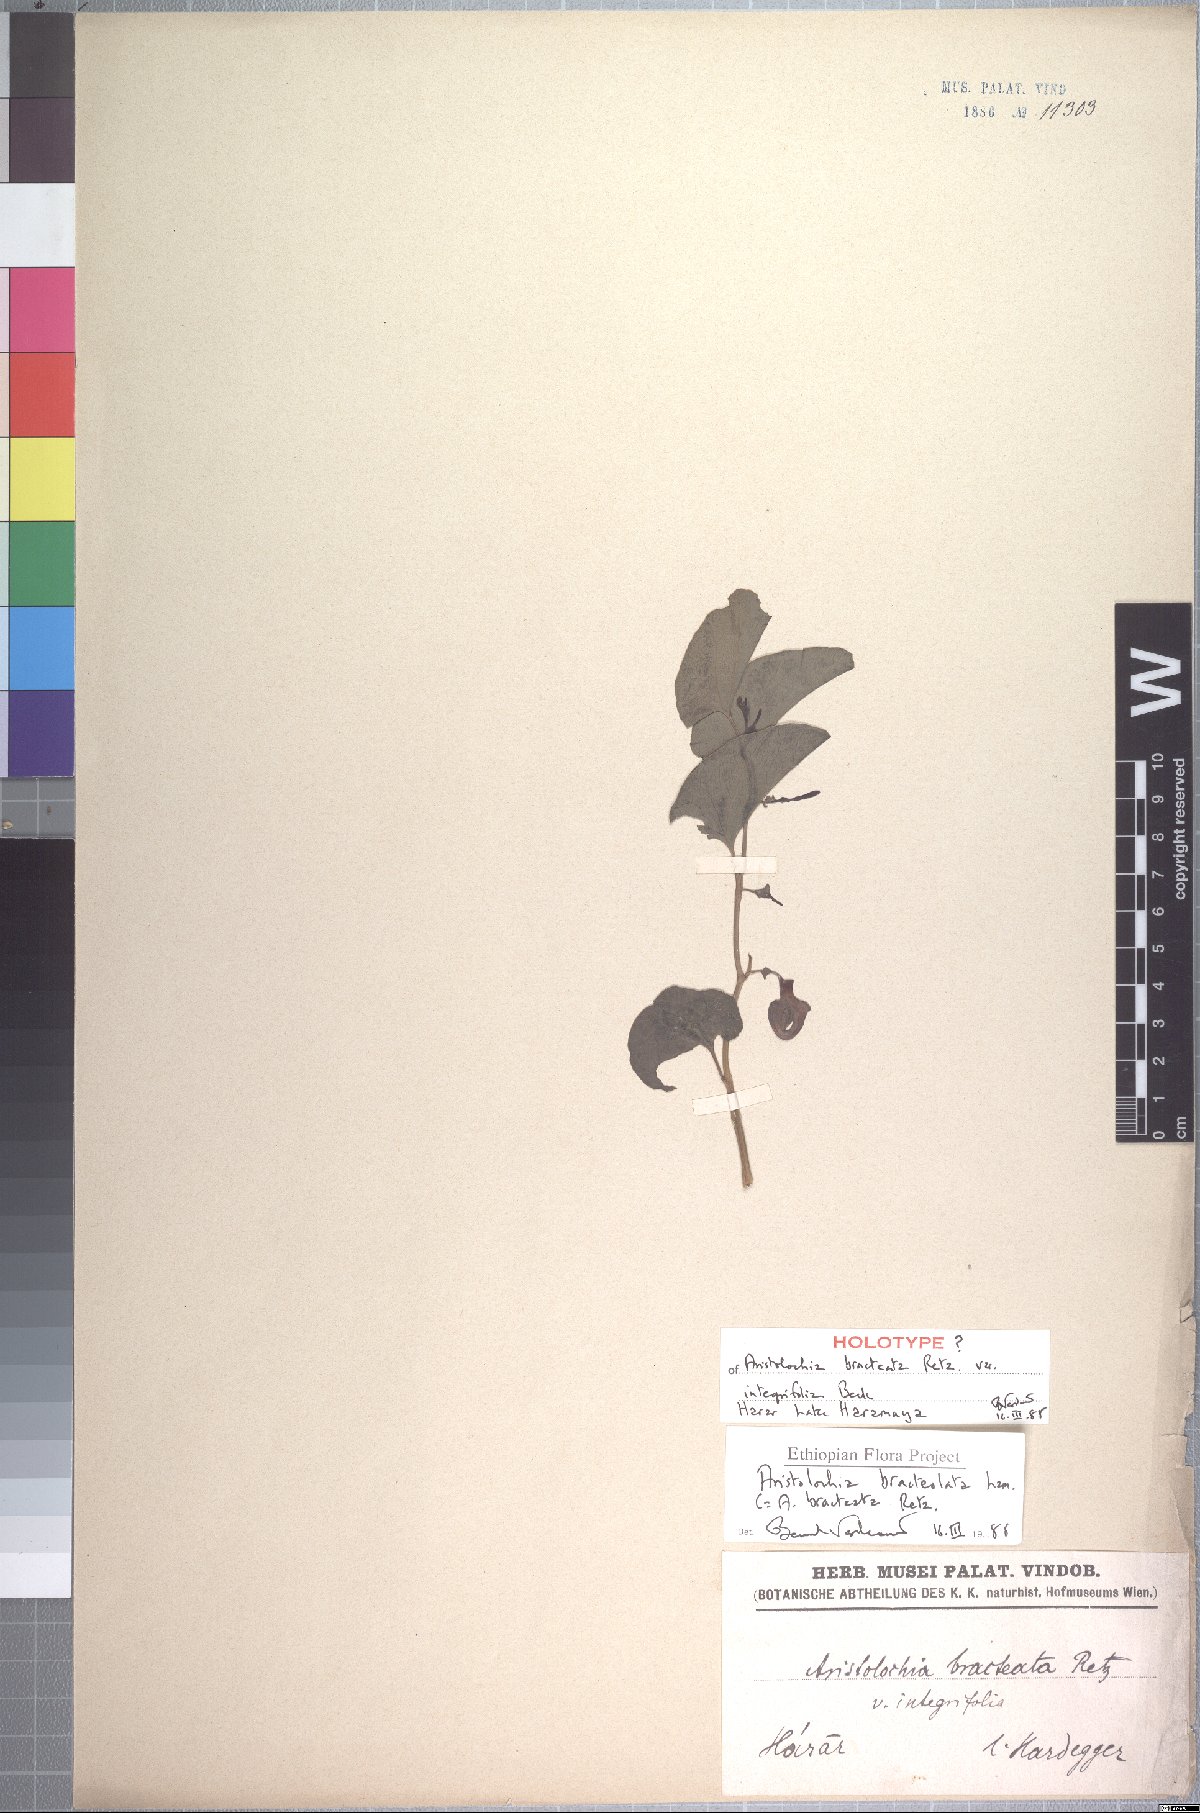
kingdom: Plantae
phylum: Tracheophyta
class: Magnoliopsida
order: Piperales
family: Aristolochiaceae
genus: Aristolochia
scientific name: Aristolochia bracteolata
